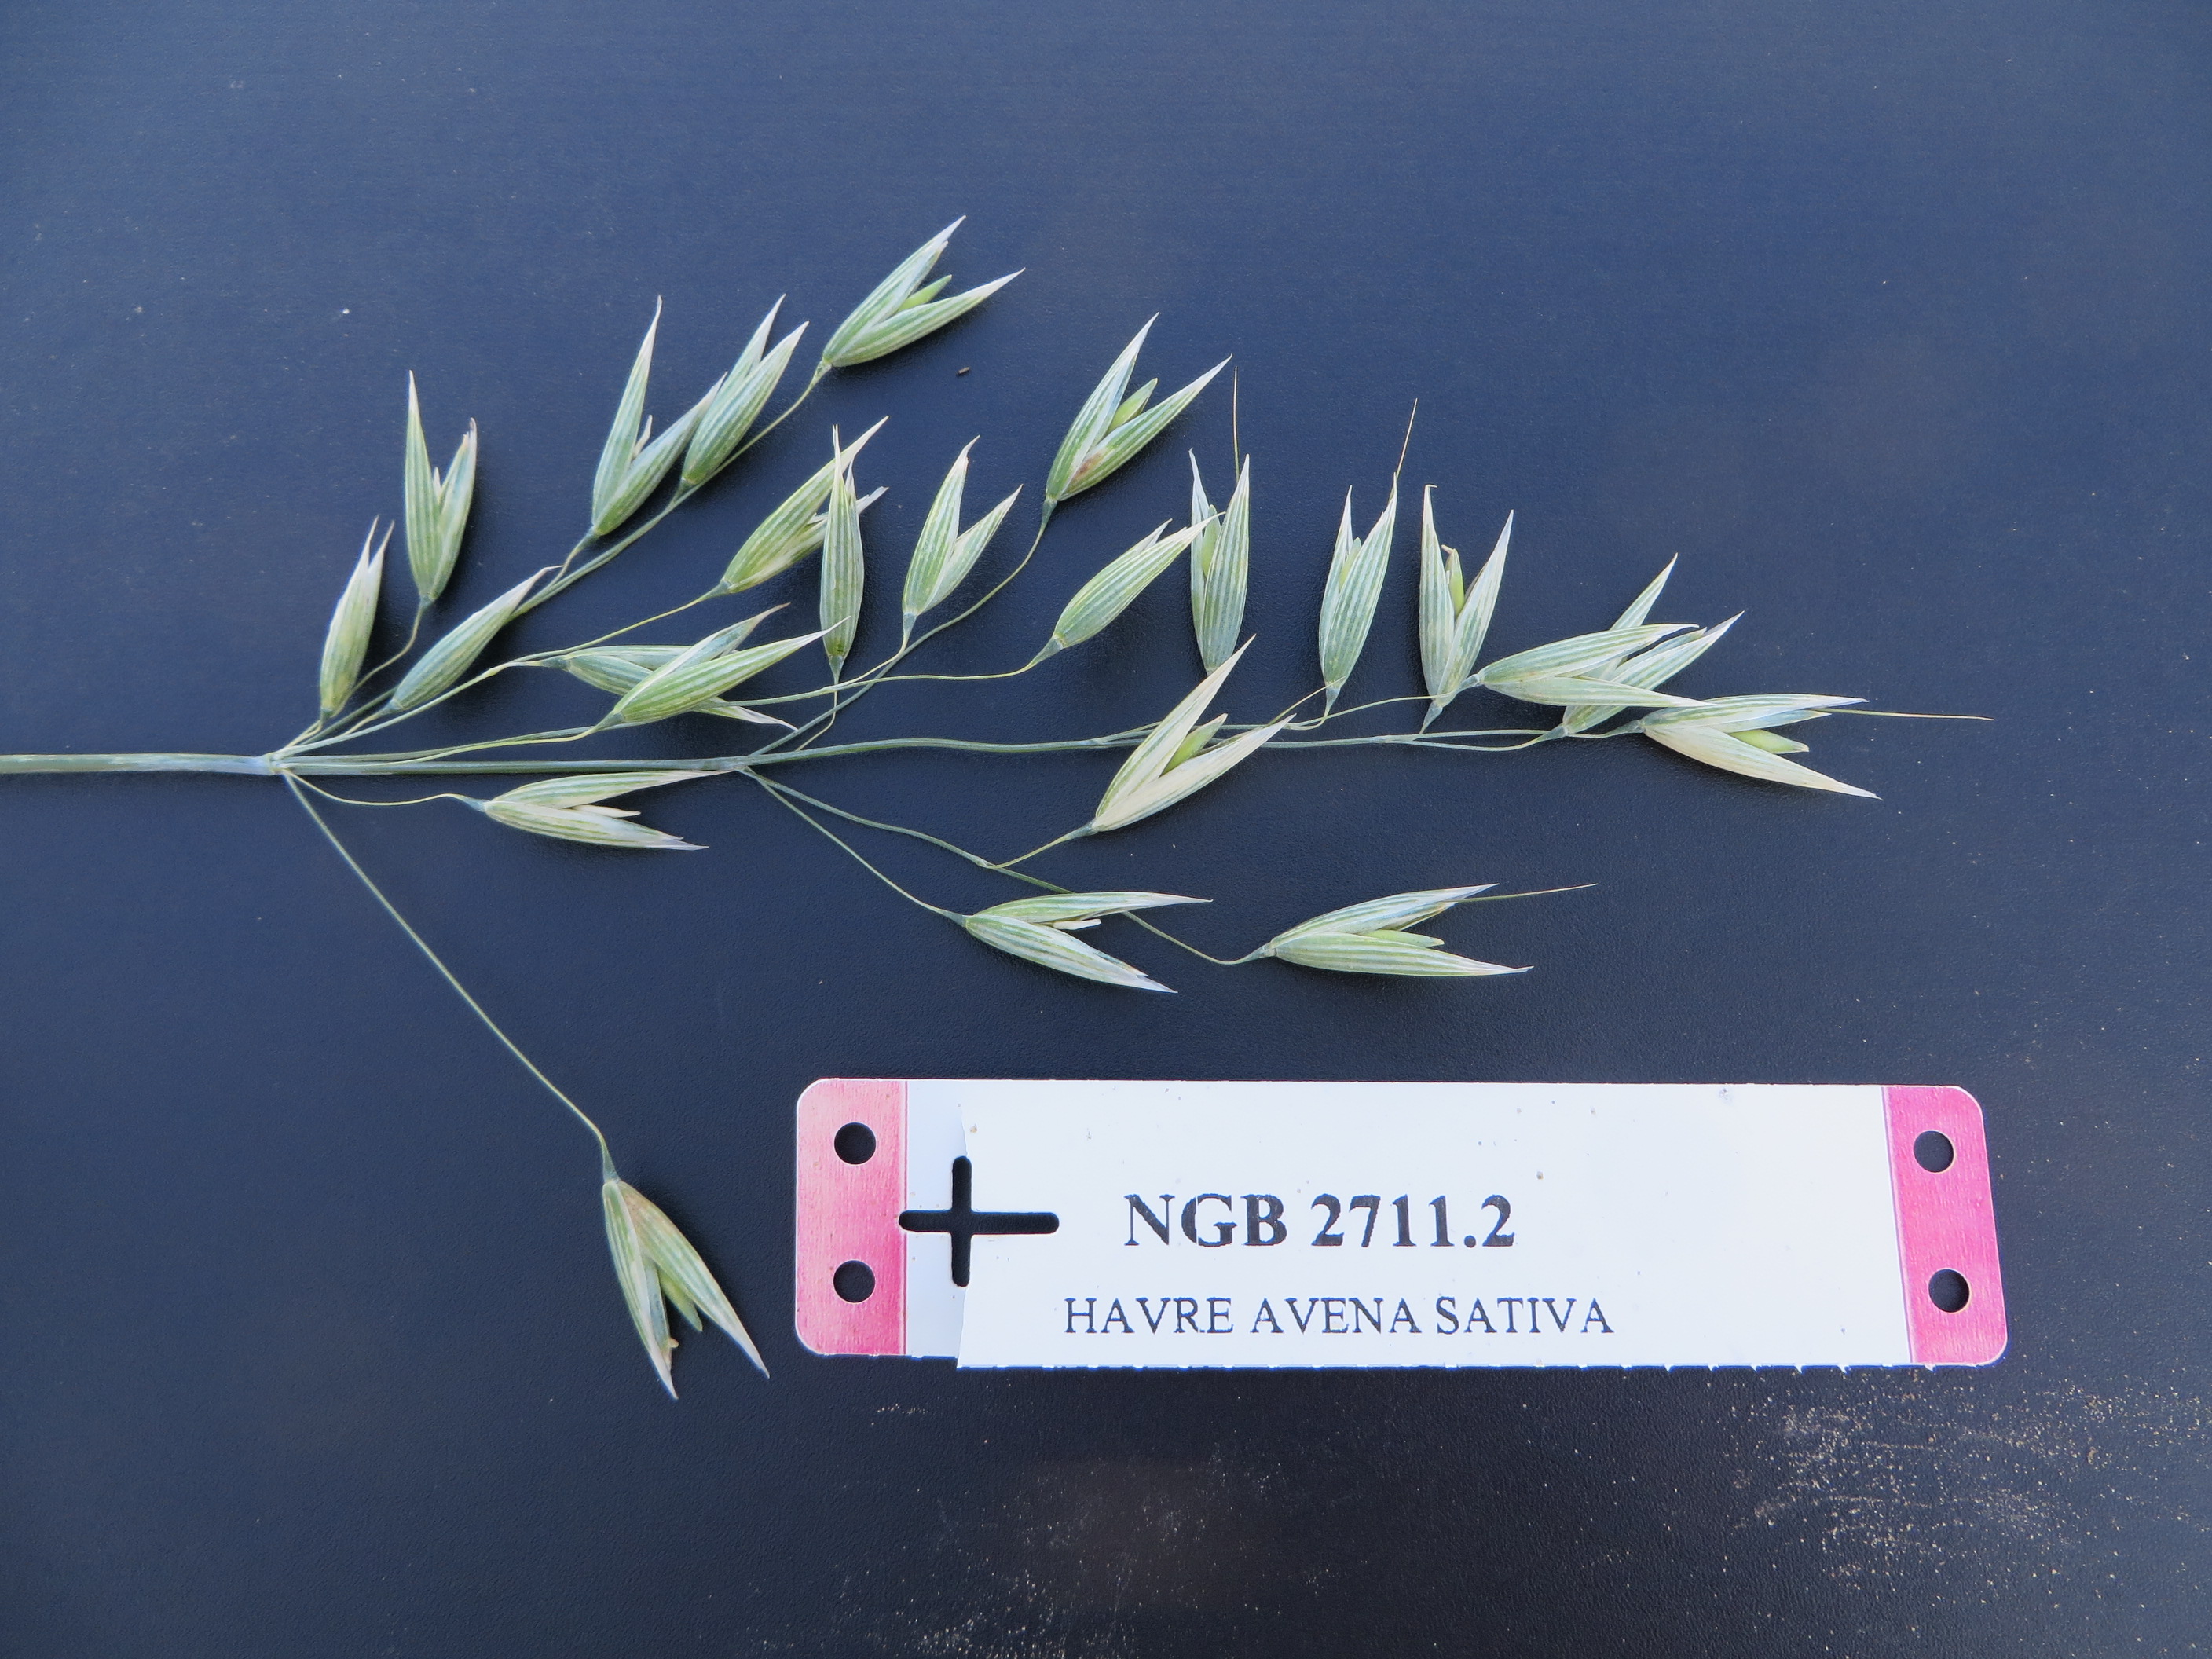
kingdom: Plantae
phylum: Tracheophyta
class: Liliopsida
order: Poales
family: Poaceae
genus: Avena
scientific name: Avena sativa
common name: Oat
